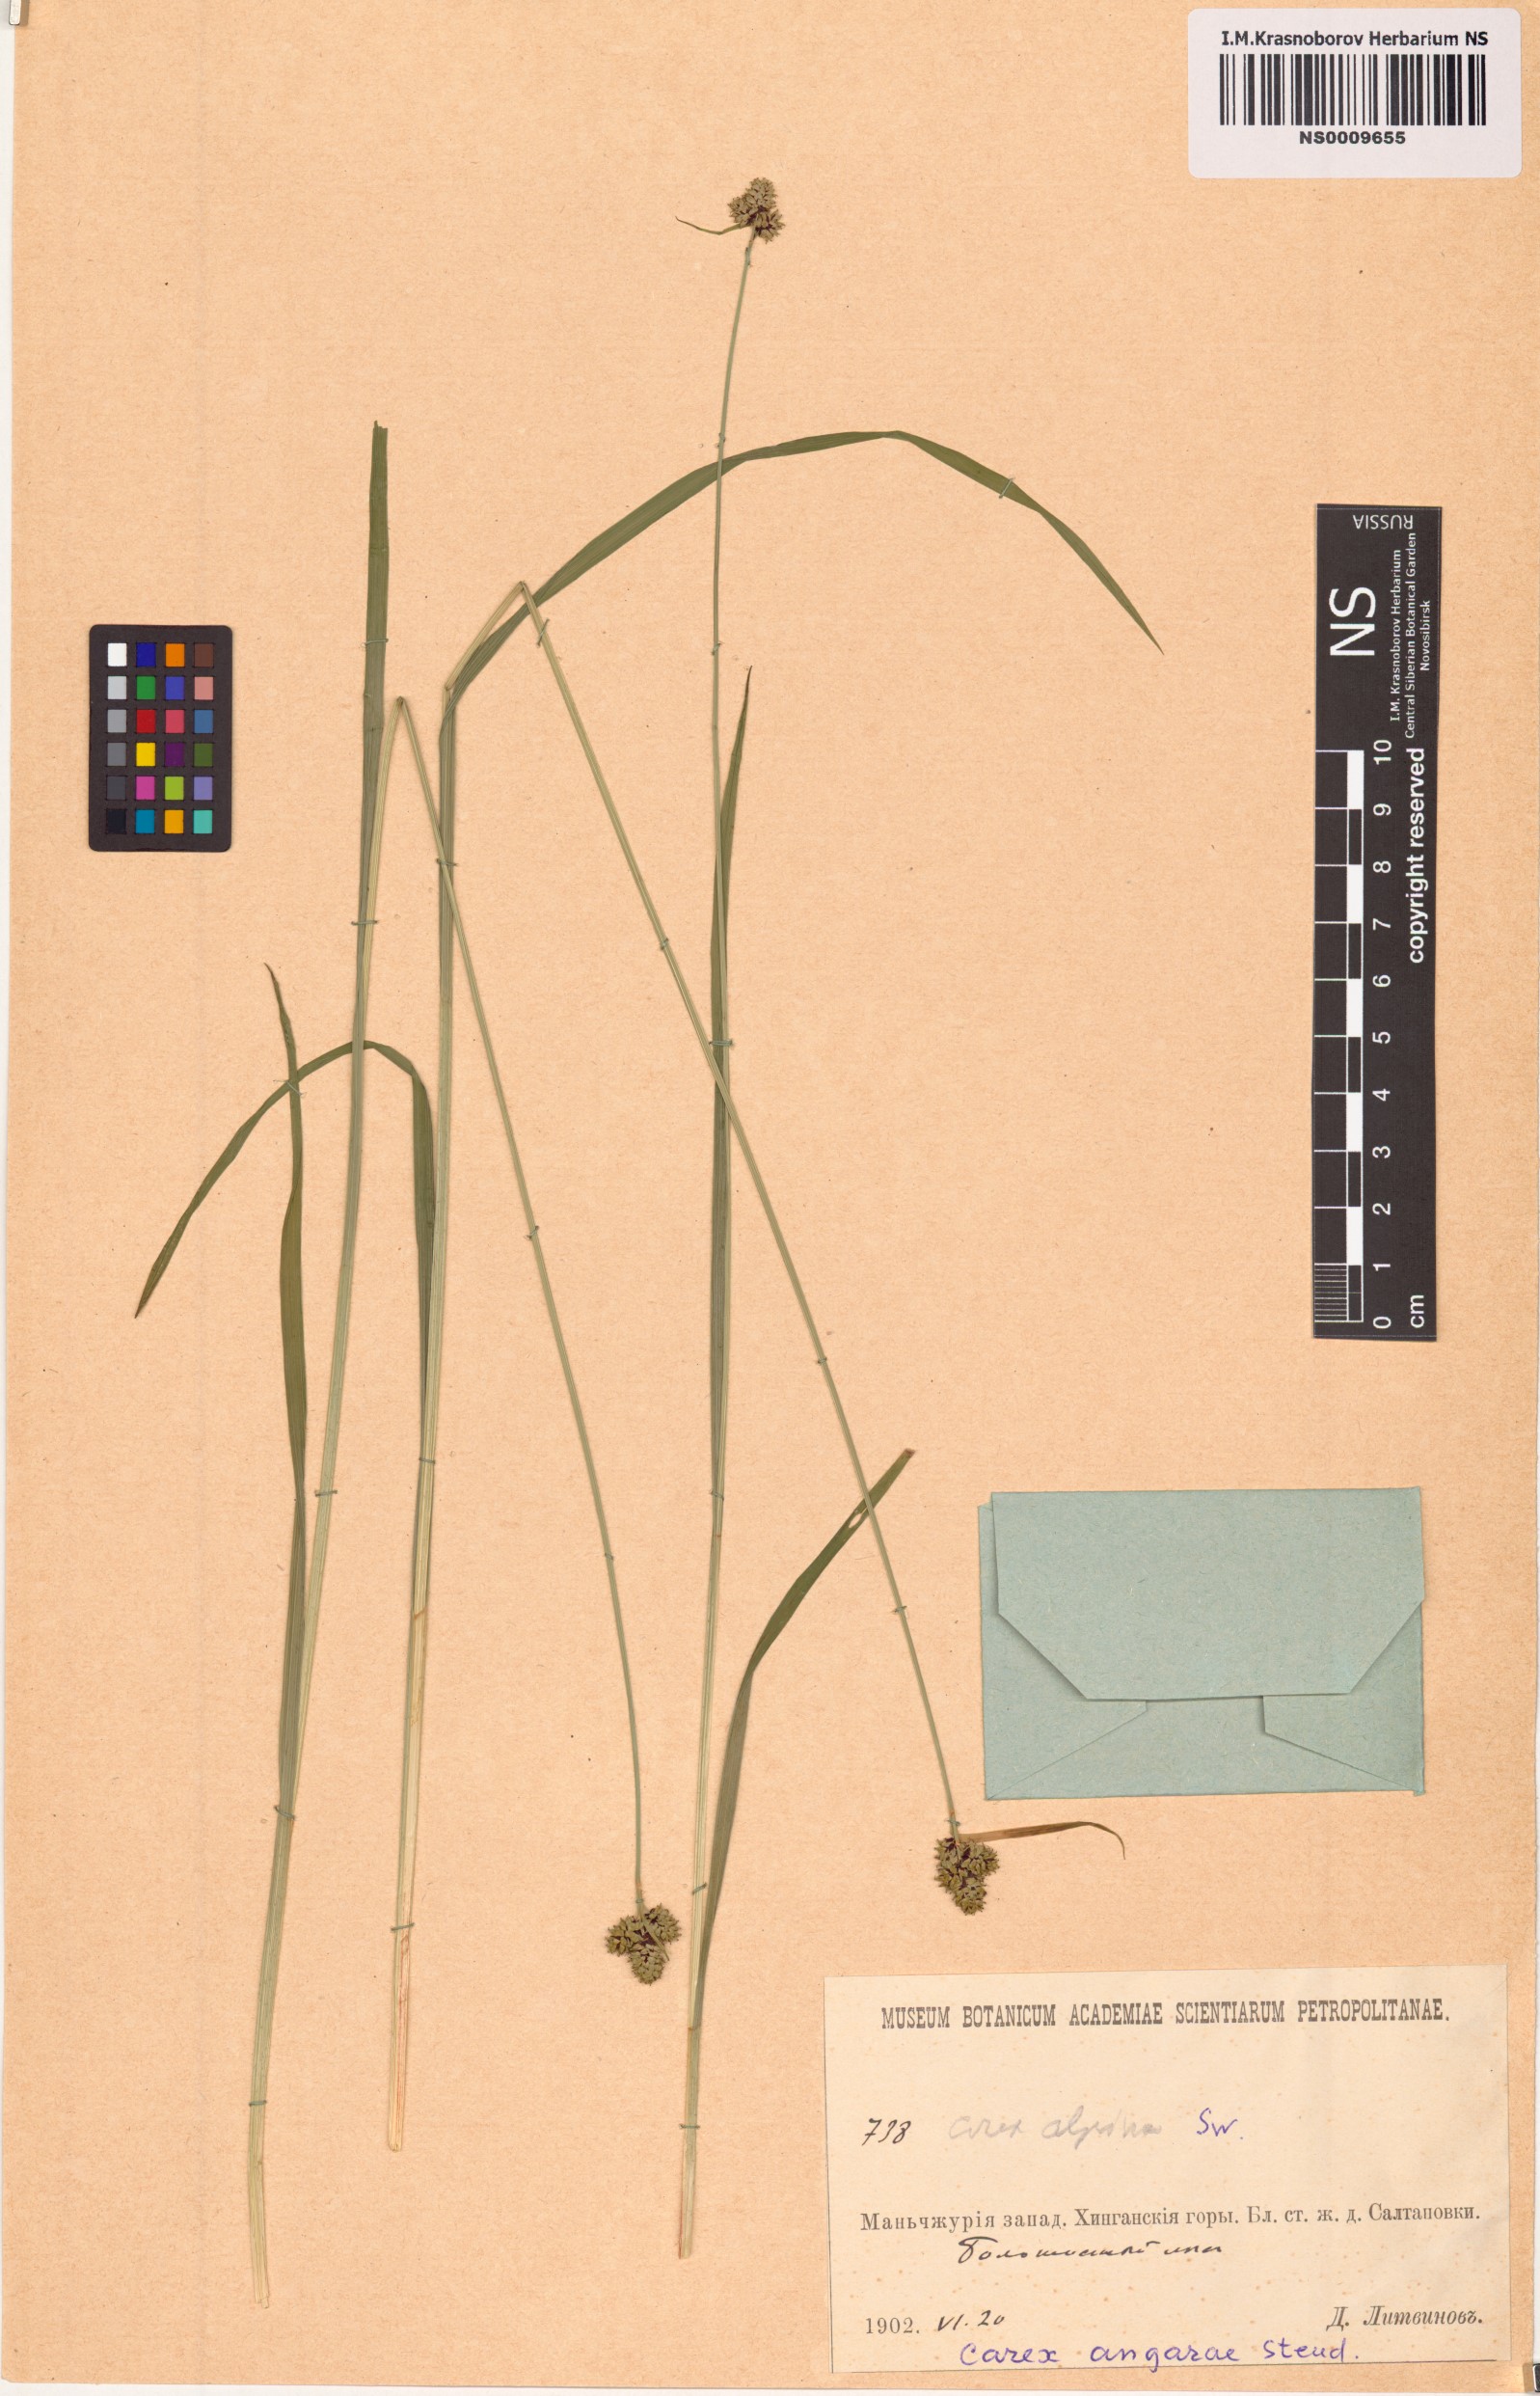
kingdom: Plantae
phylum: Tracheophyta
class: Liliopsida
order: Poales
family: Cyperaceae
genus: Carex
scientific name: Carex media
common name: Alpine sedge
